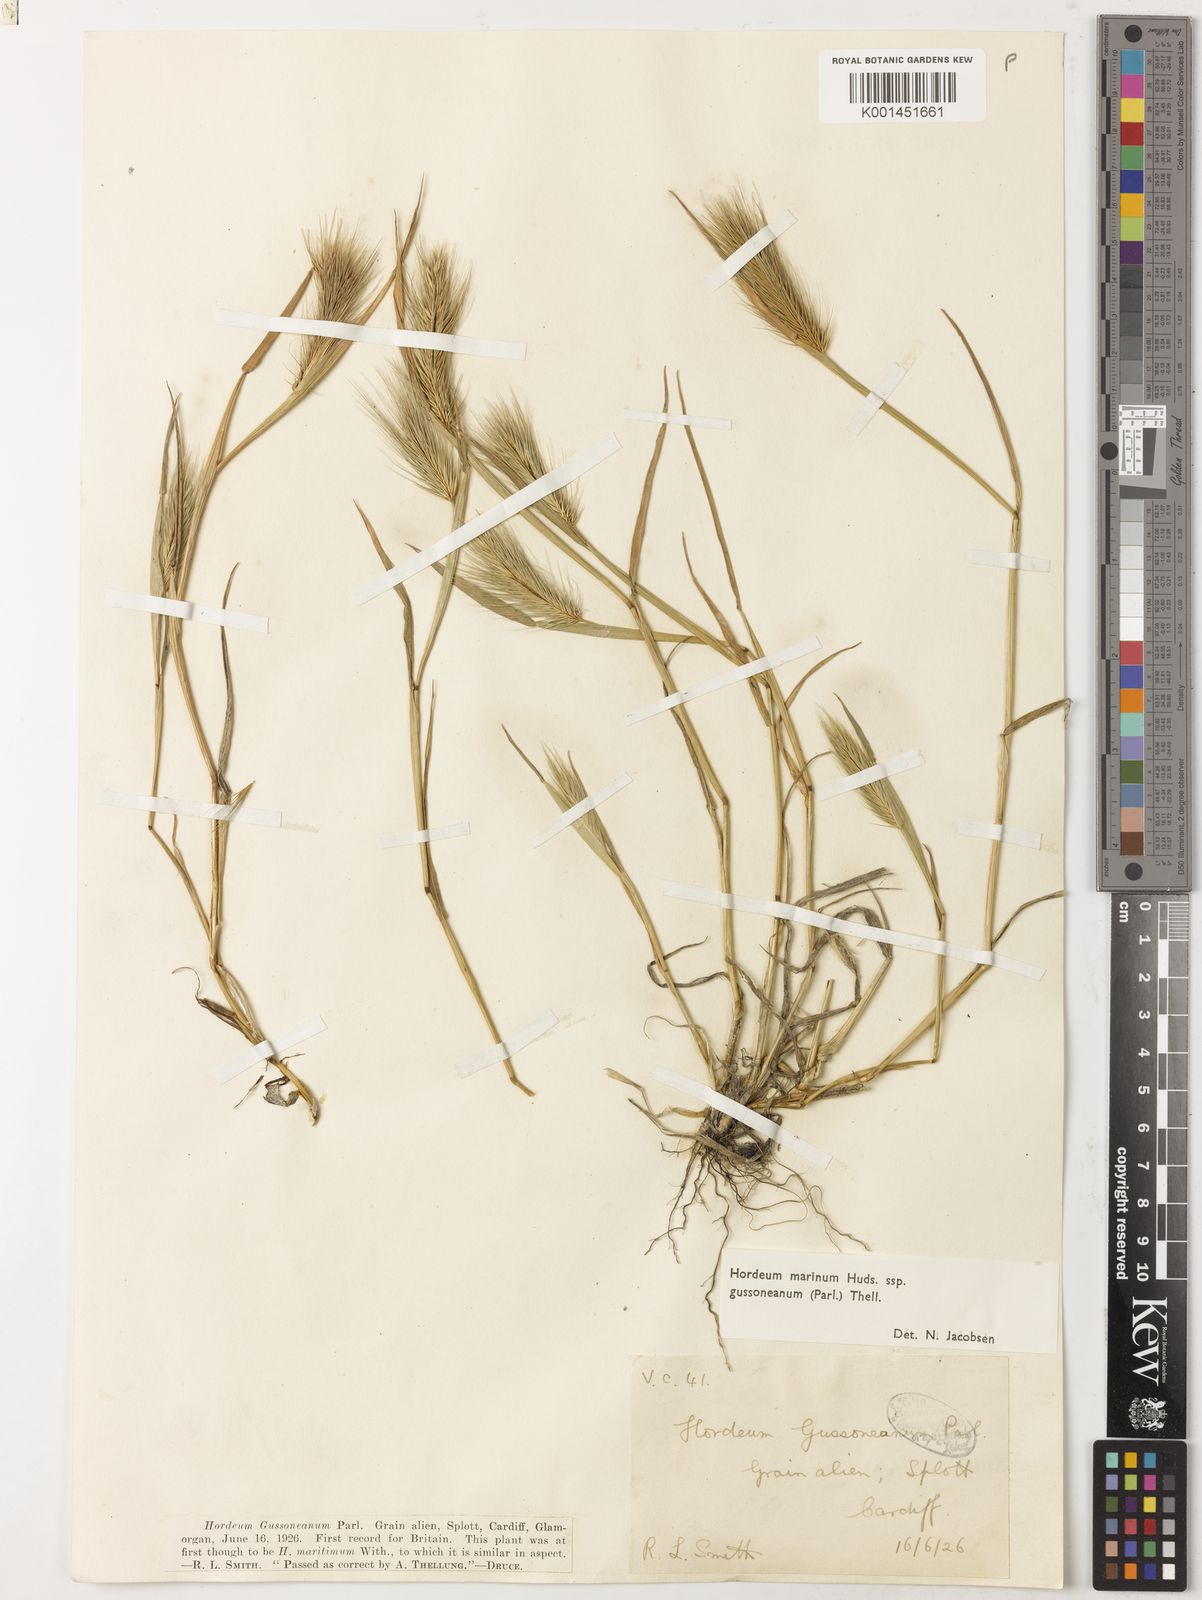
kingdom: Plantae
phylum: Tracheophyta
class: Liliopsida
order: Poales
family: Poaceae
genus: Hordeum
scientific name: Hordeum marinum
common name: Sea barley
